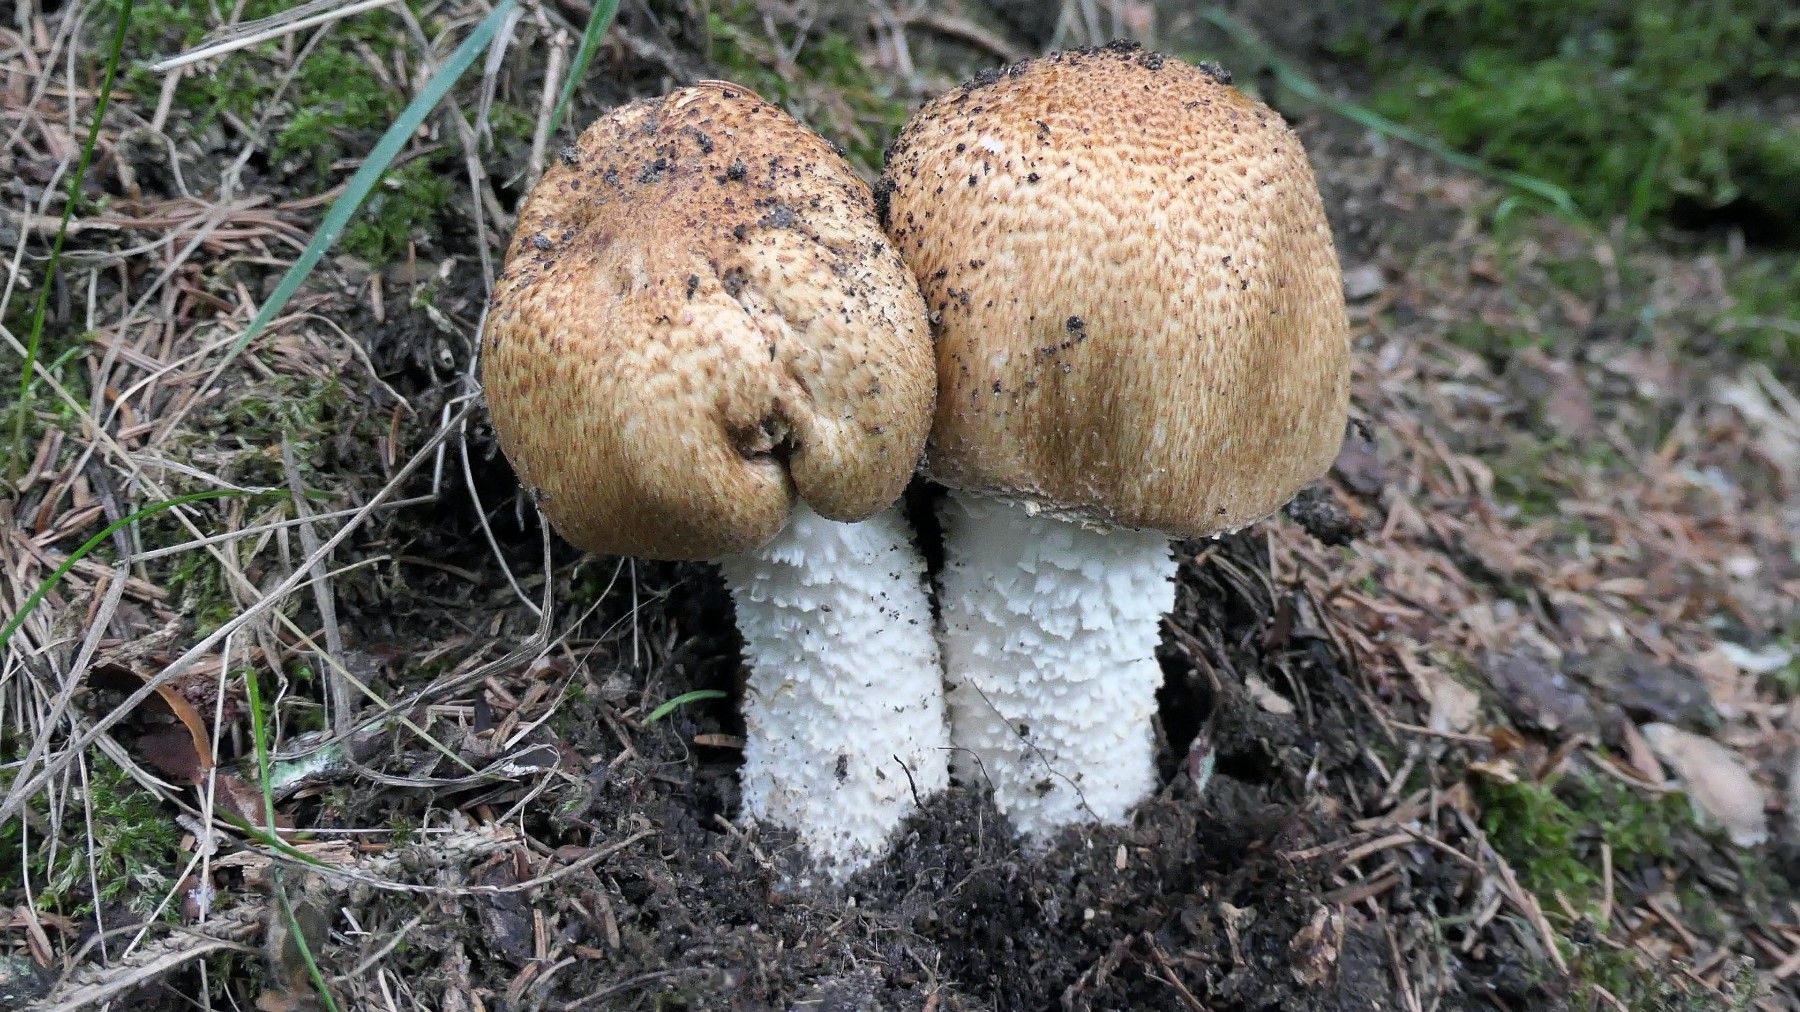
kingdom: Fungi
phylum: Basidiomycota
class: Agaricomycetes
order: Agaricales
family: Agaricaceae
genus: Agaricus
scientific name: Agaricus augustus
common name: prægtig champignon
